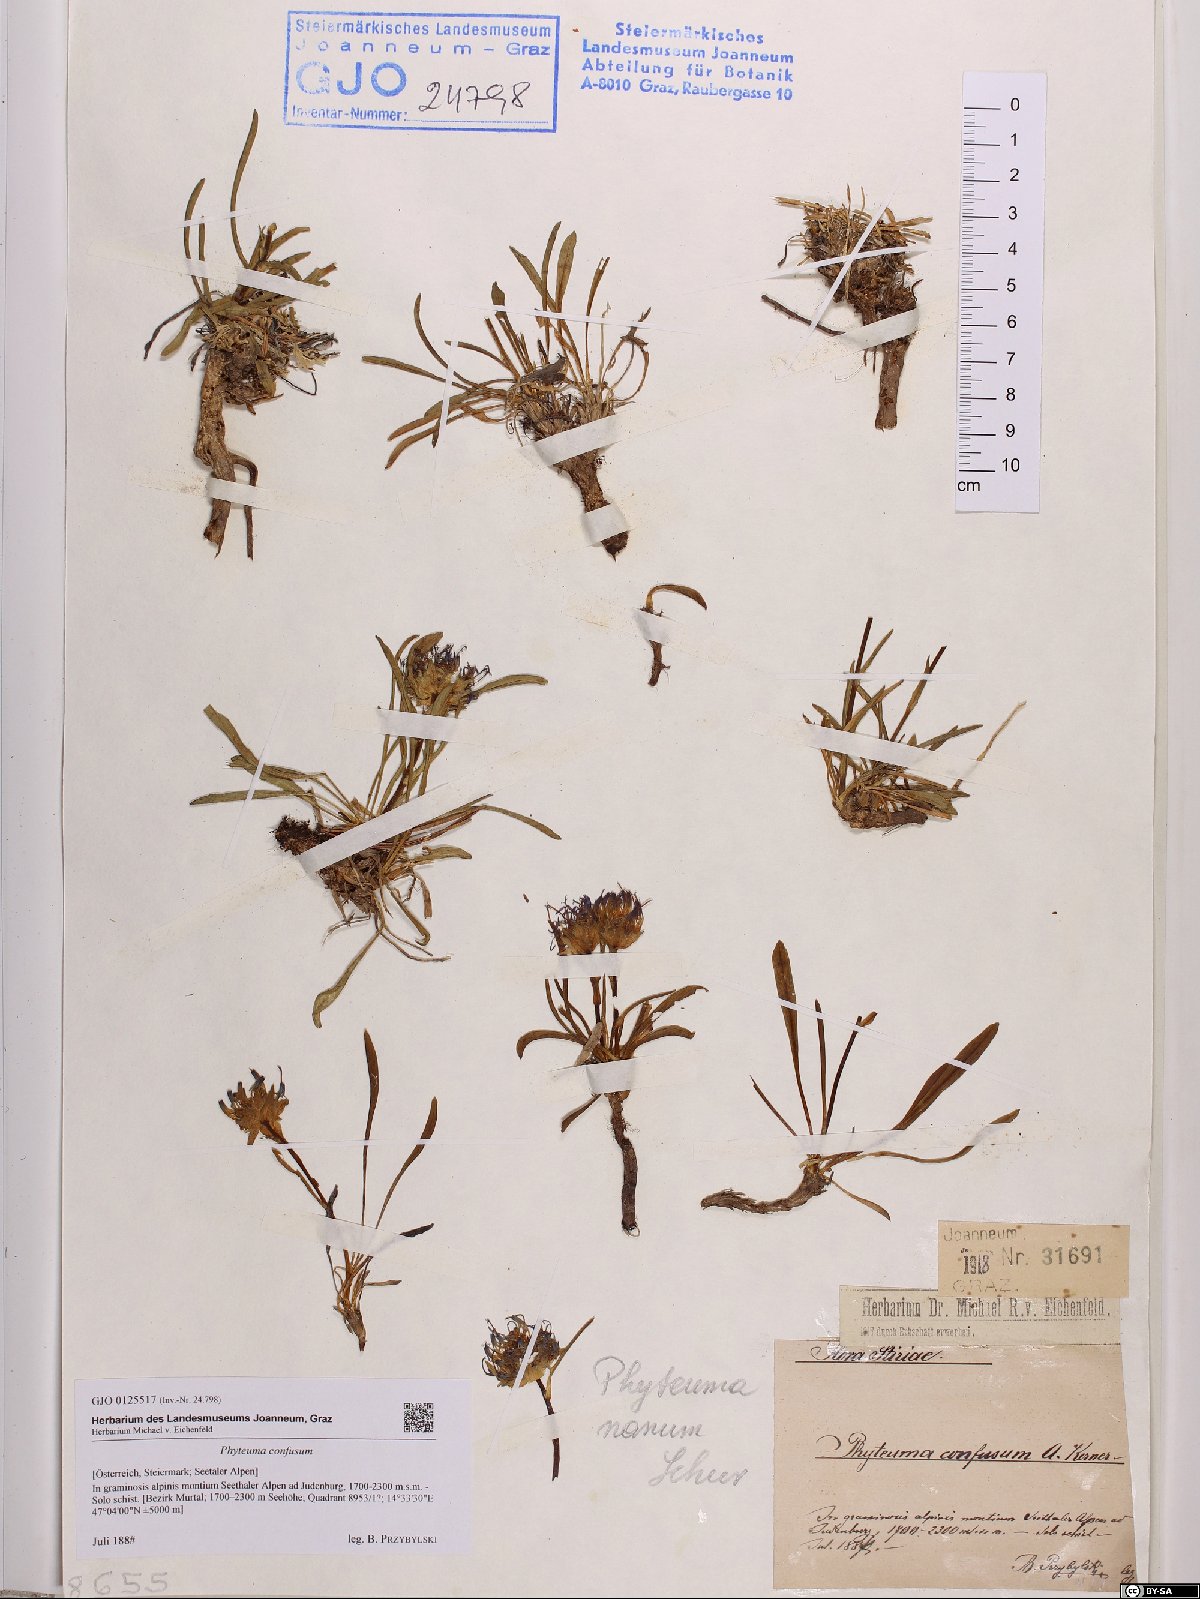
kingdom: Plantae
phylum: Tracheophyta
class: Magnoliopsida
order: Asterales
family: Campanulaceae
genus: Phyteuma
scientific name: Phyteuma confusum
